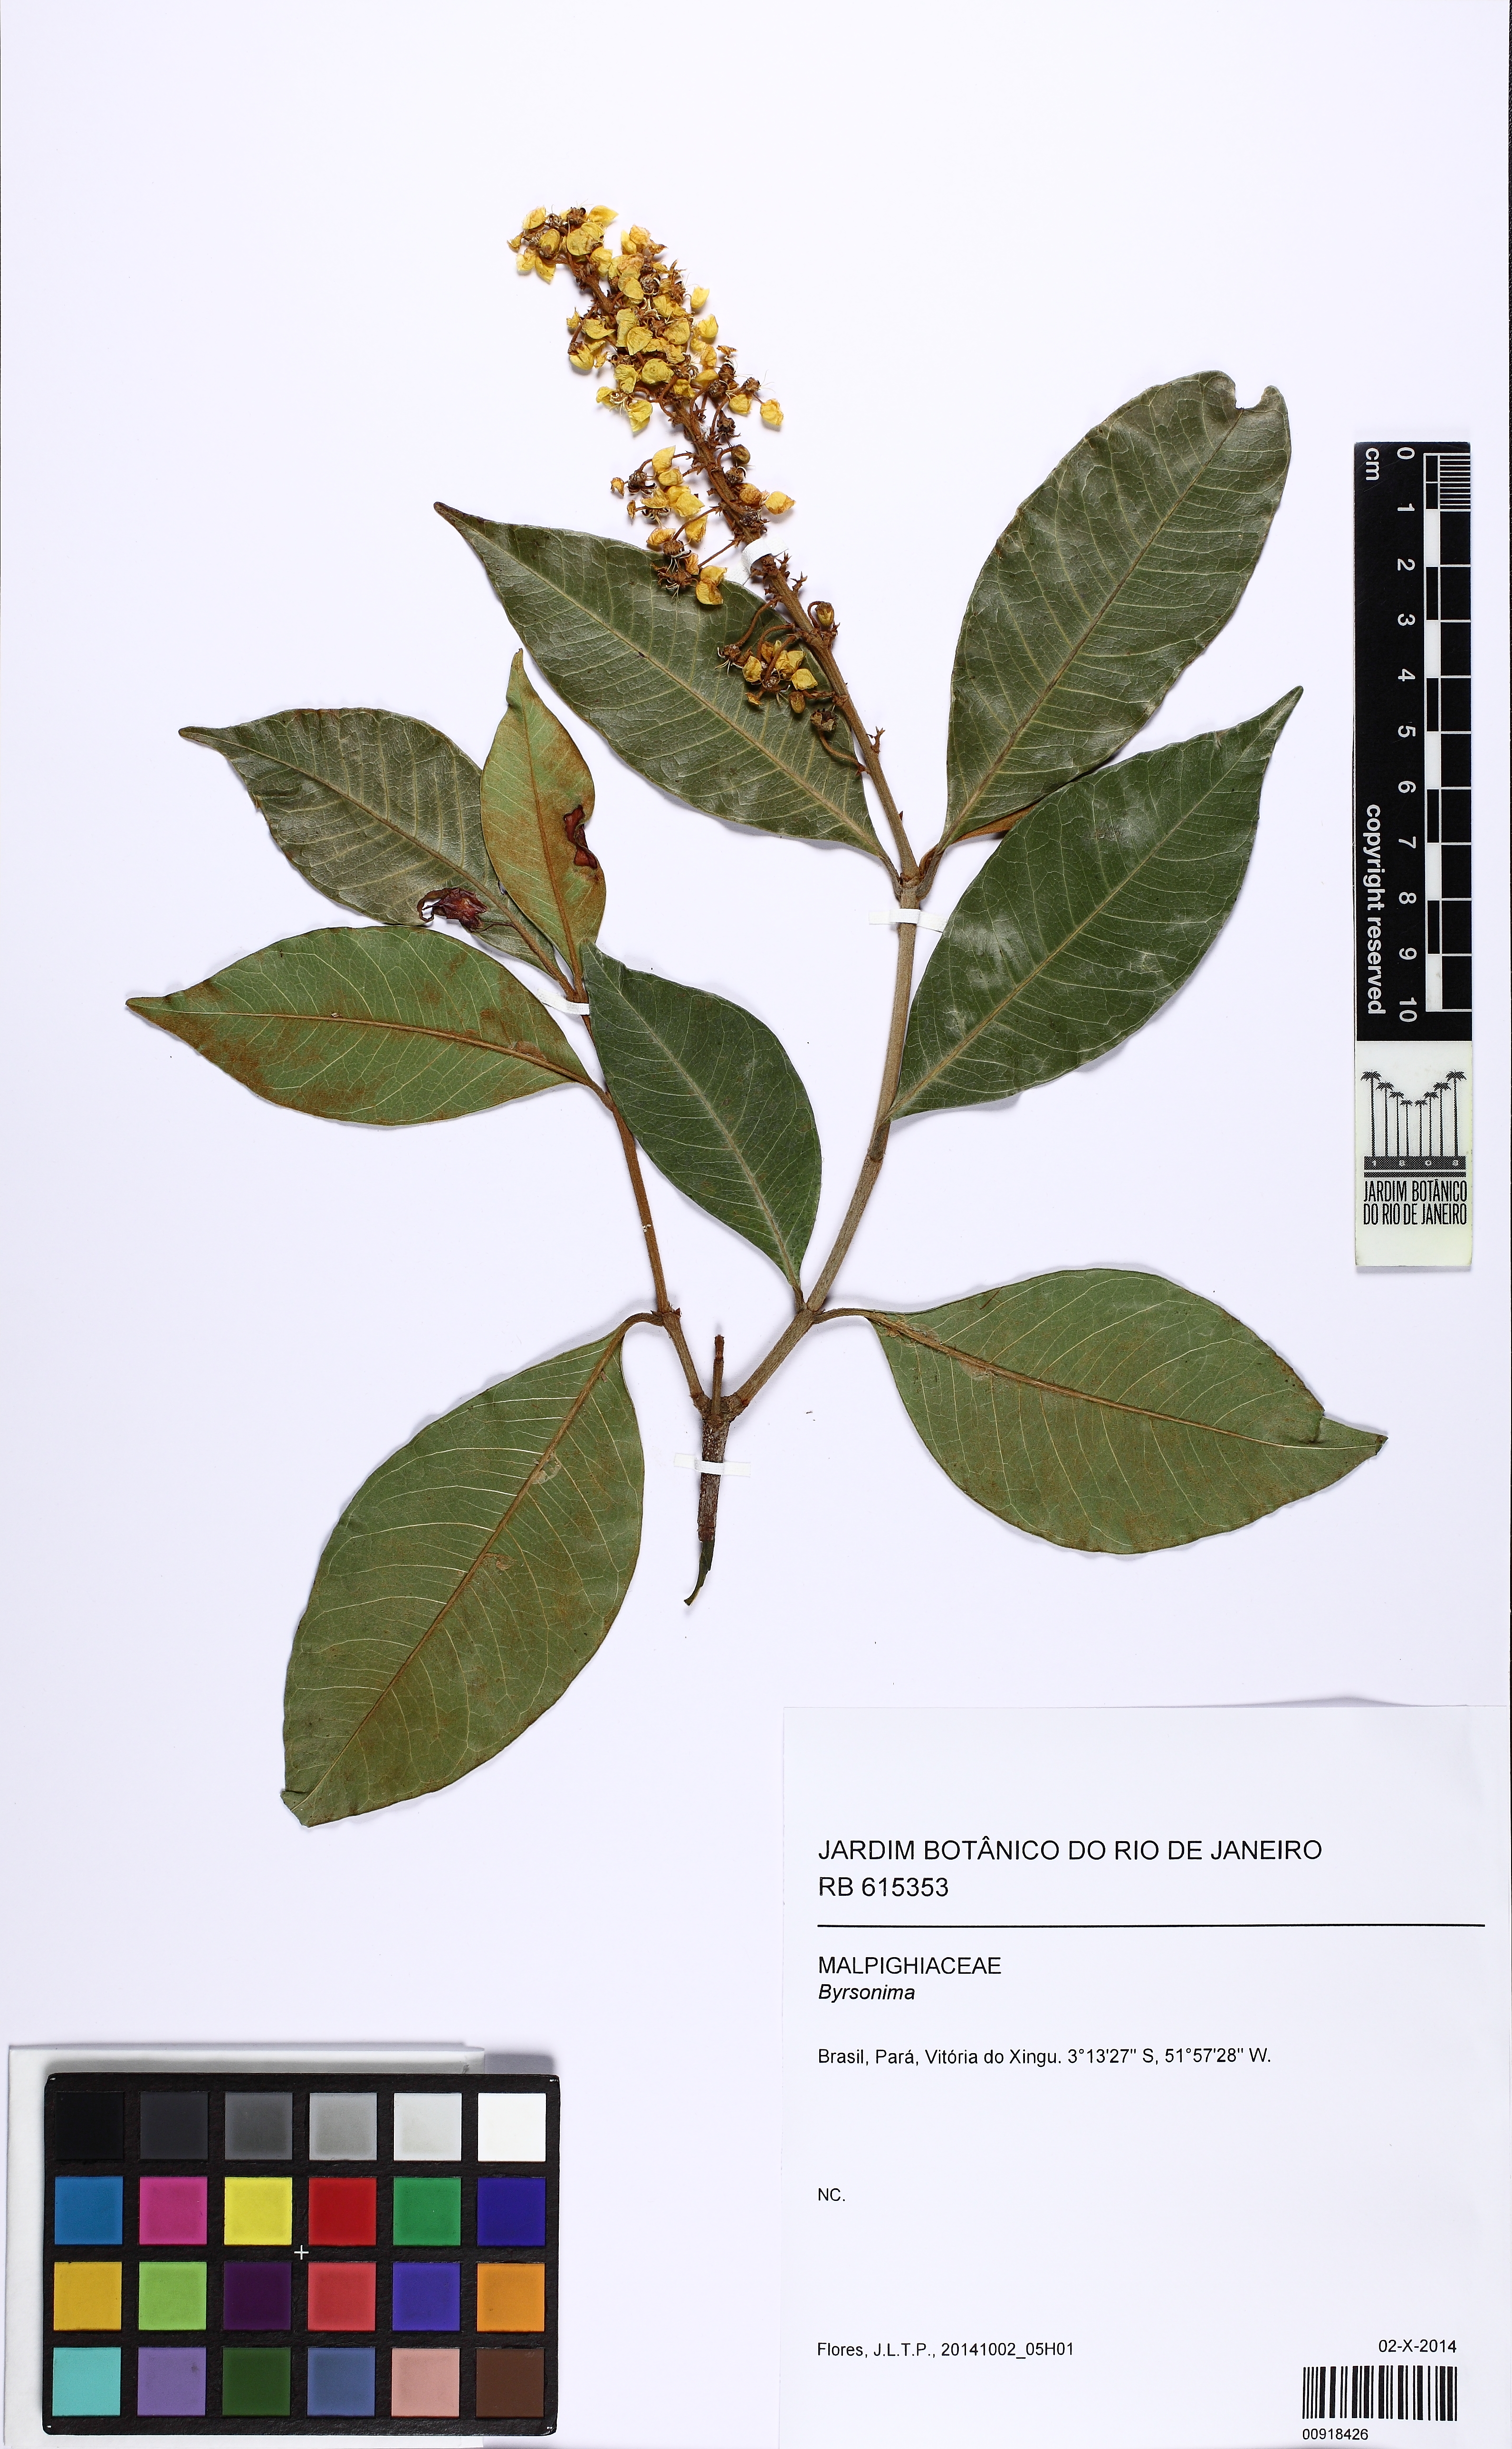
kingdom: Plantae
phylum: Tracheophyta
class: Magnoliopsida
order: Malpighiales
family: Malpighiaceae
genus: Byrsonima
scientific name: Byrsonima
